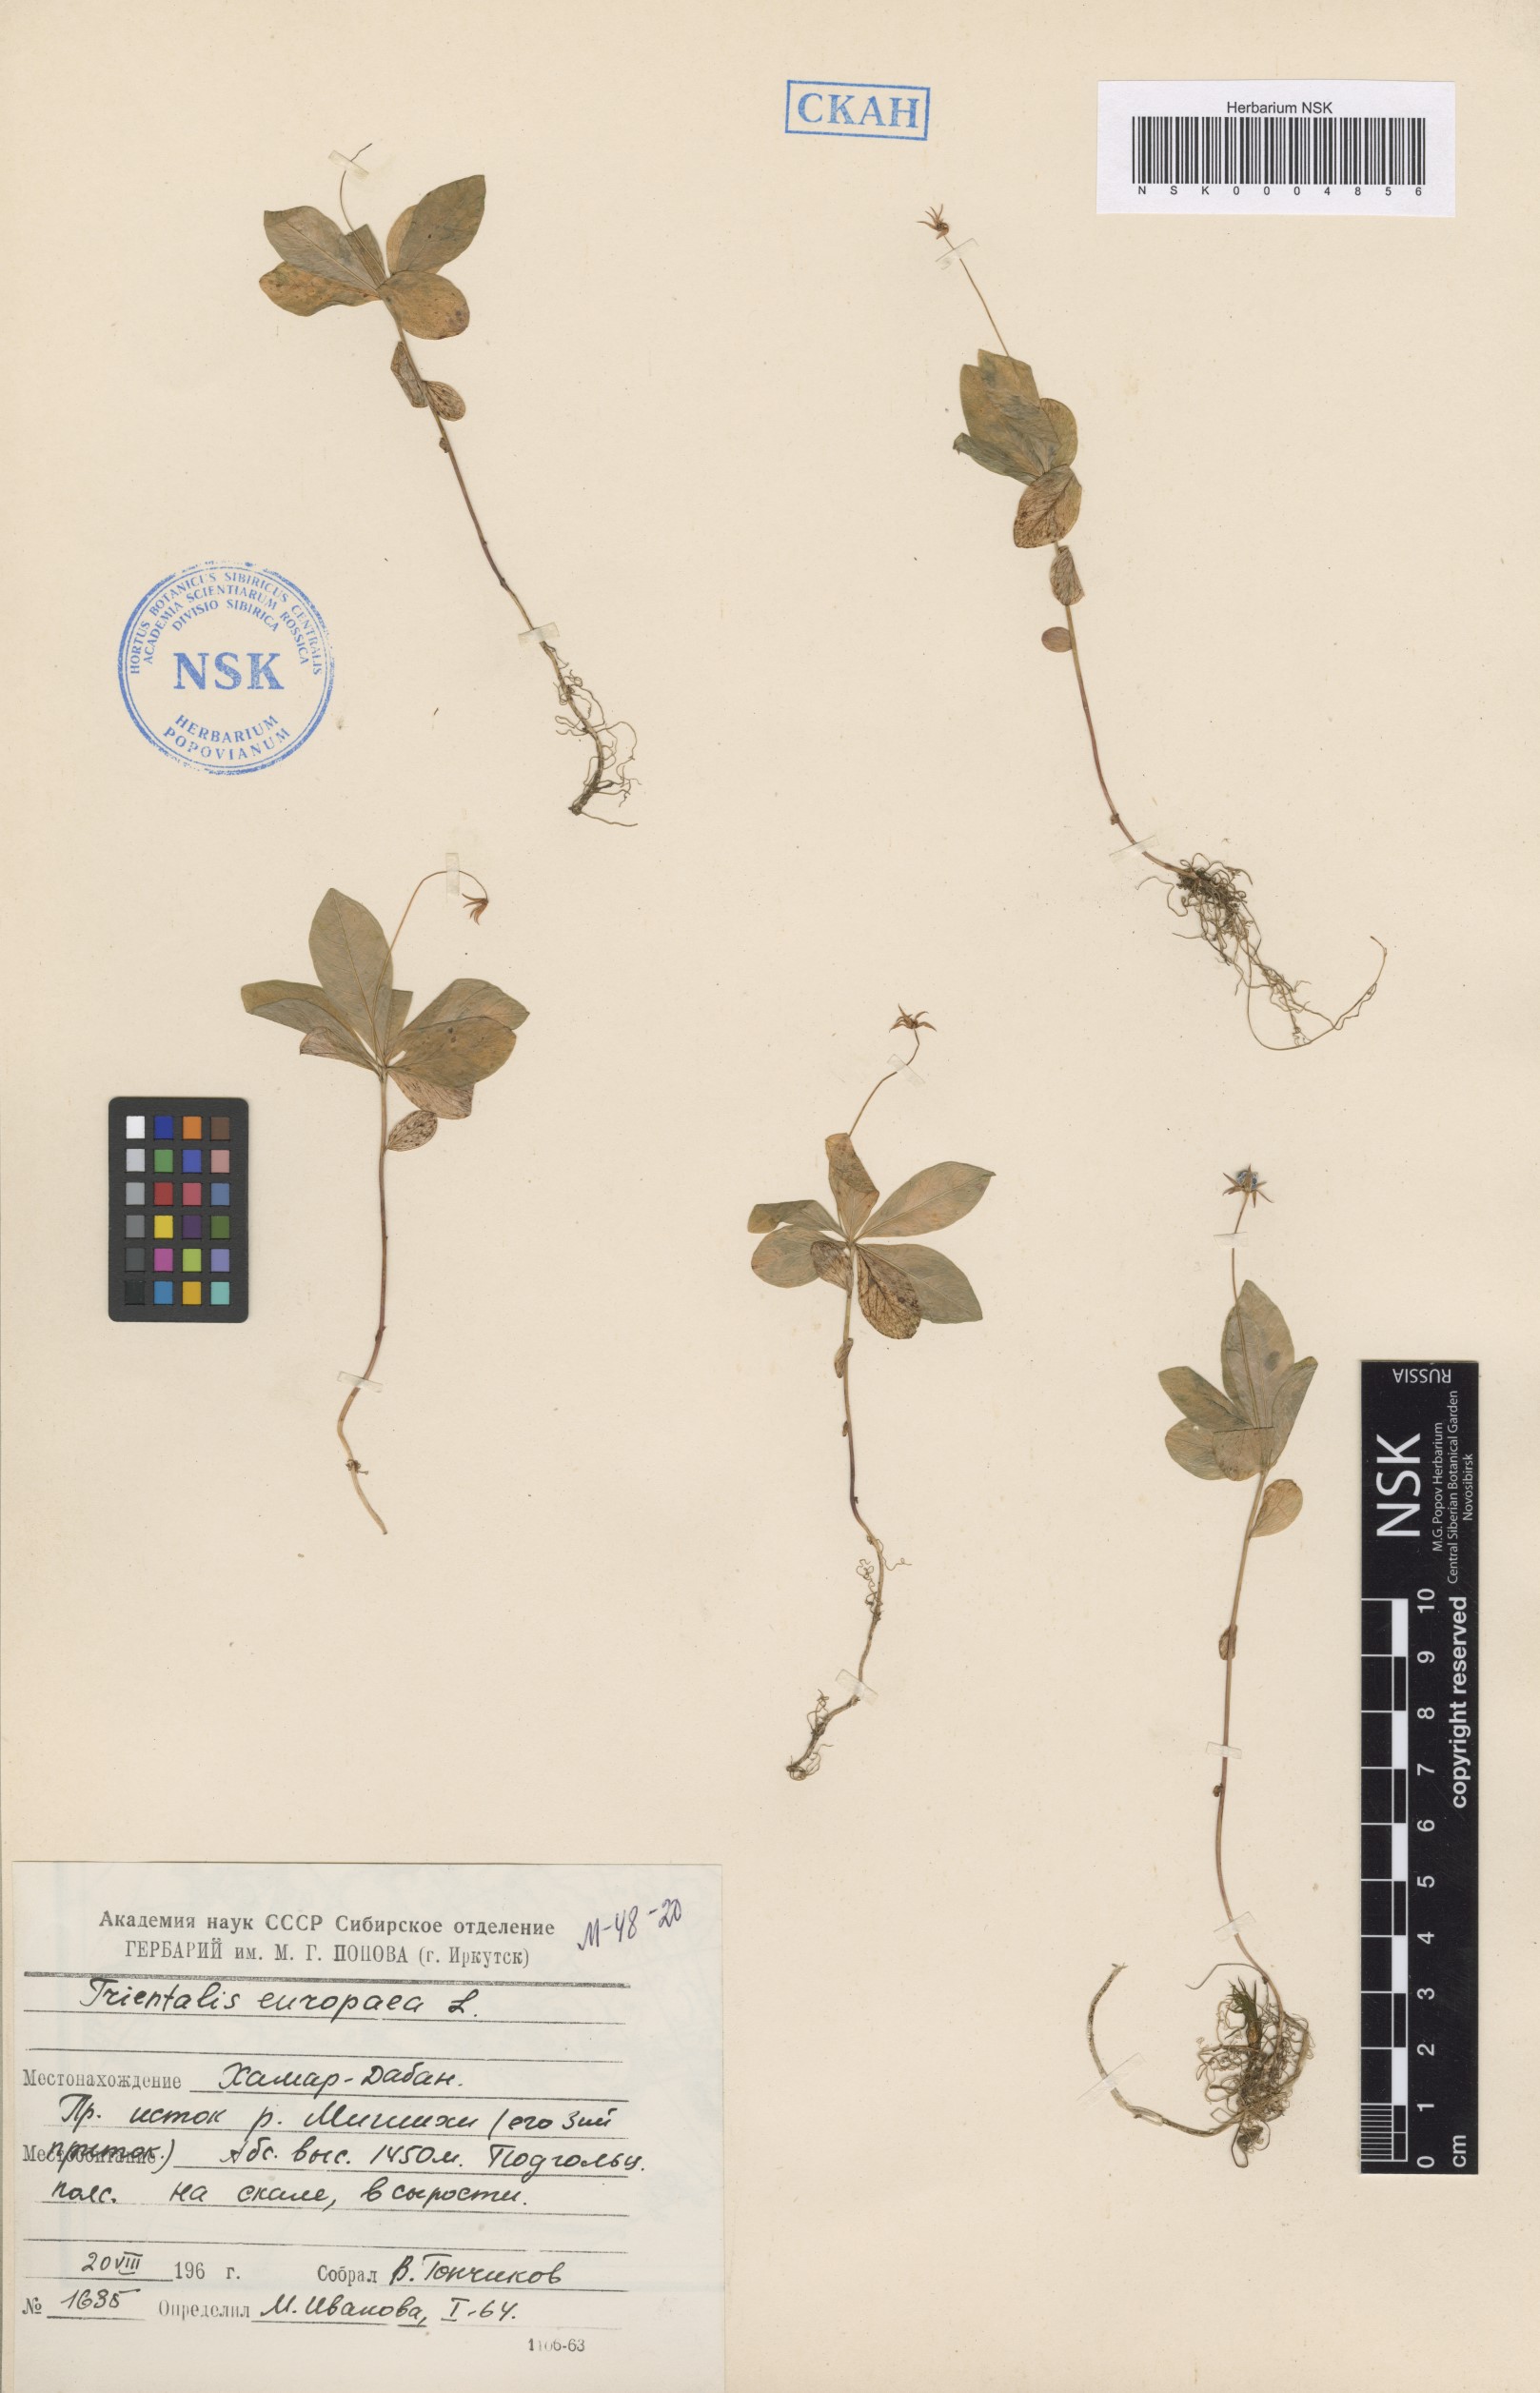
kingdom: Plantae
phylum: Tracheophyta
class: Magnoliopsida
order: Ericales
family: Primulaceae
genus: Lysimachia
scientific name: Lysimachia europaea
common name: Arctic starflower
